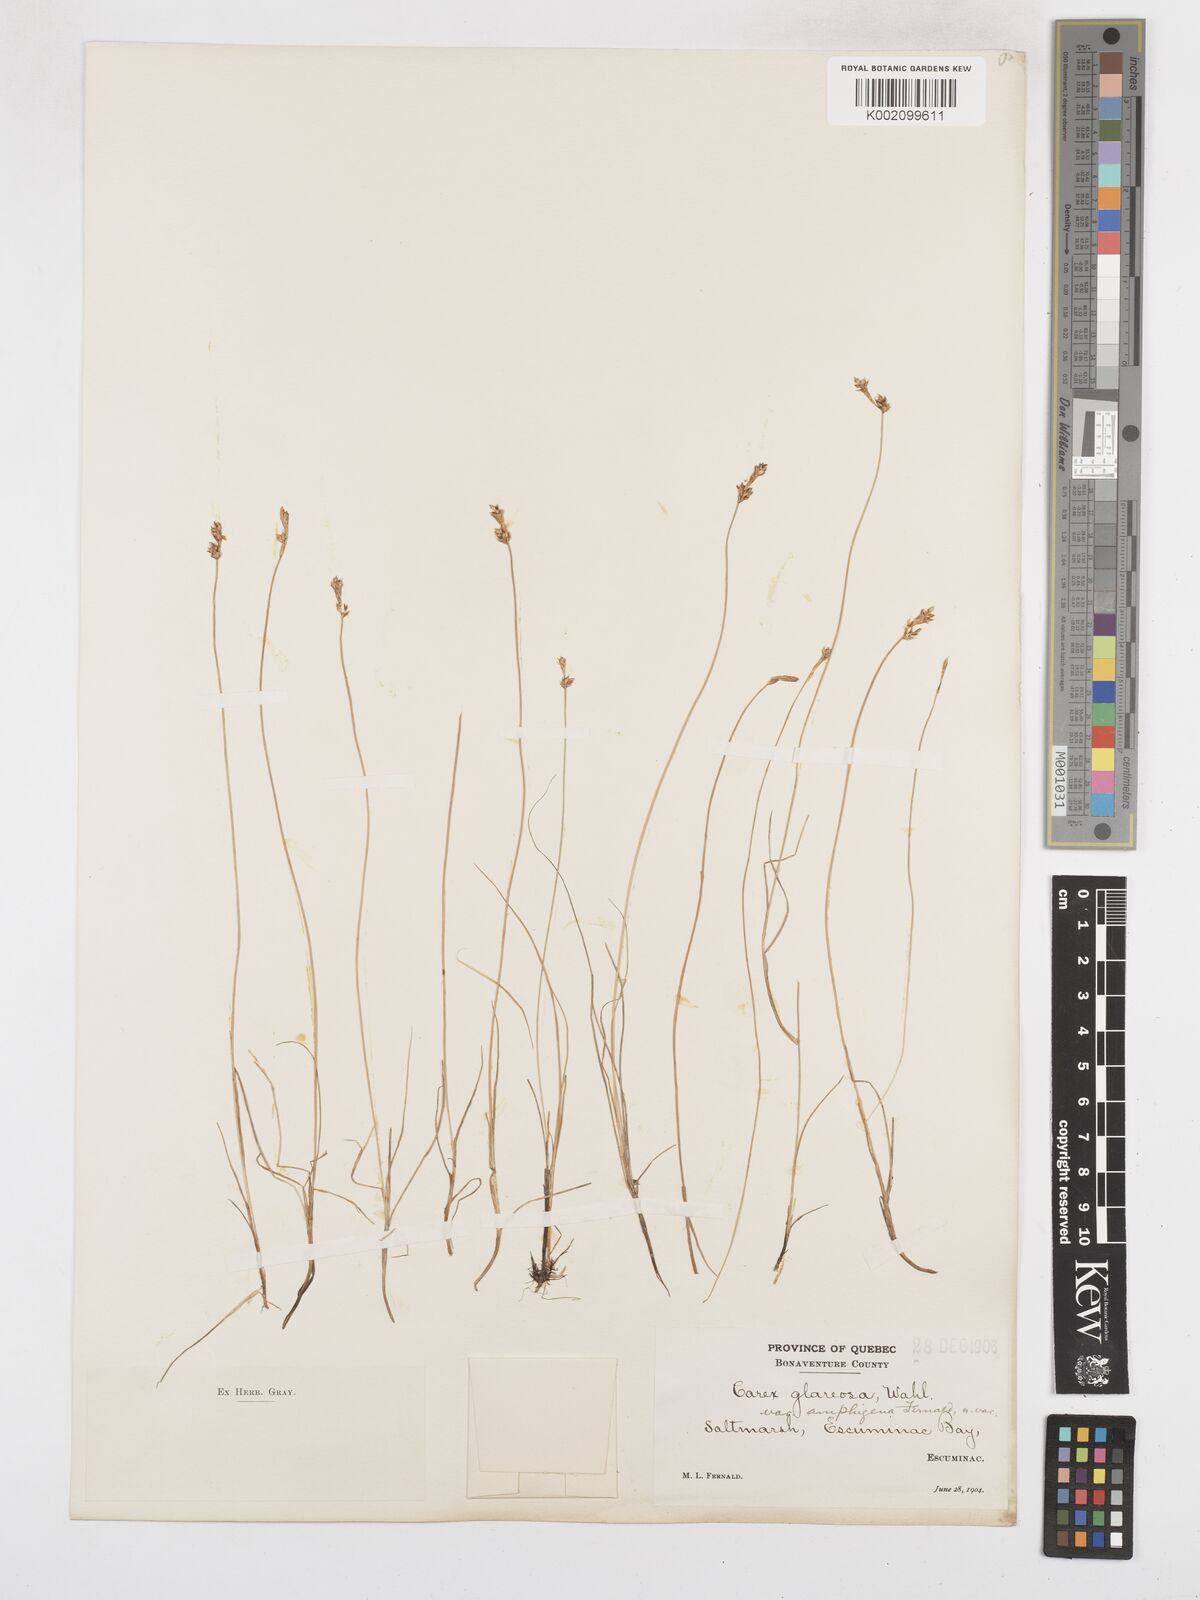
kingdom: Plantae
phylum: Tracheophyta
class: Liliopsida
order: Poales
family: Cyperaceae
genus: Carex
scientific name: Carex glareosa
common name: Clustered sedge
